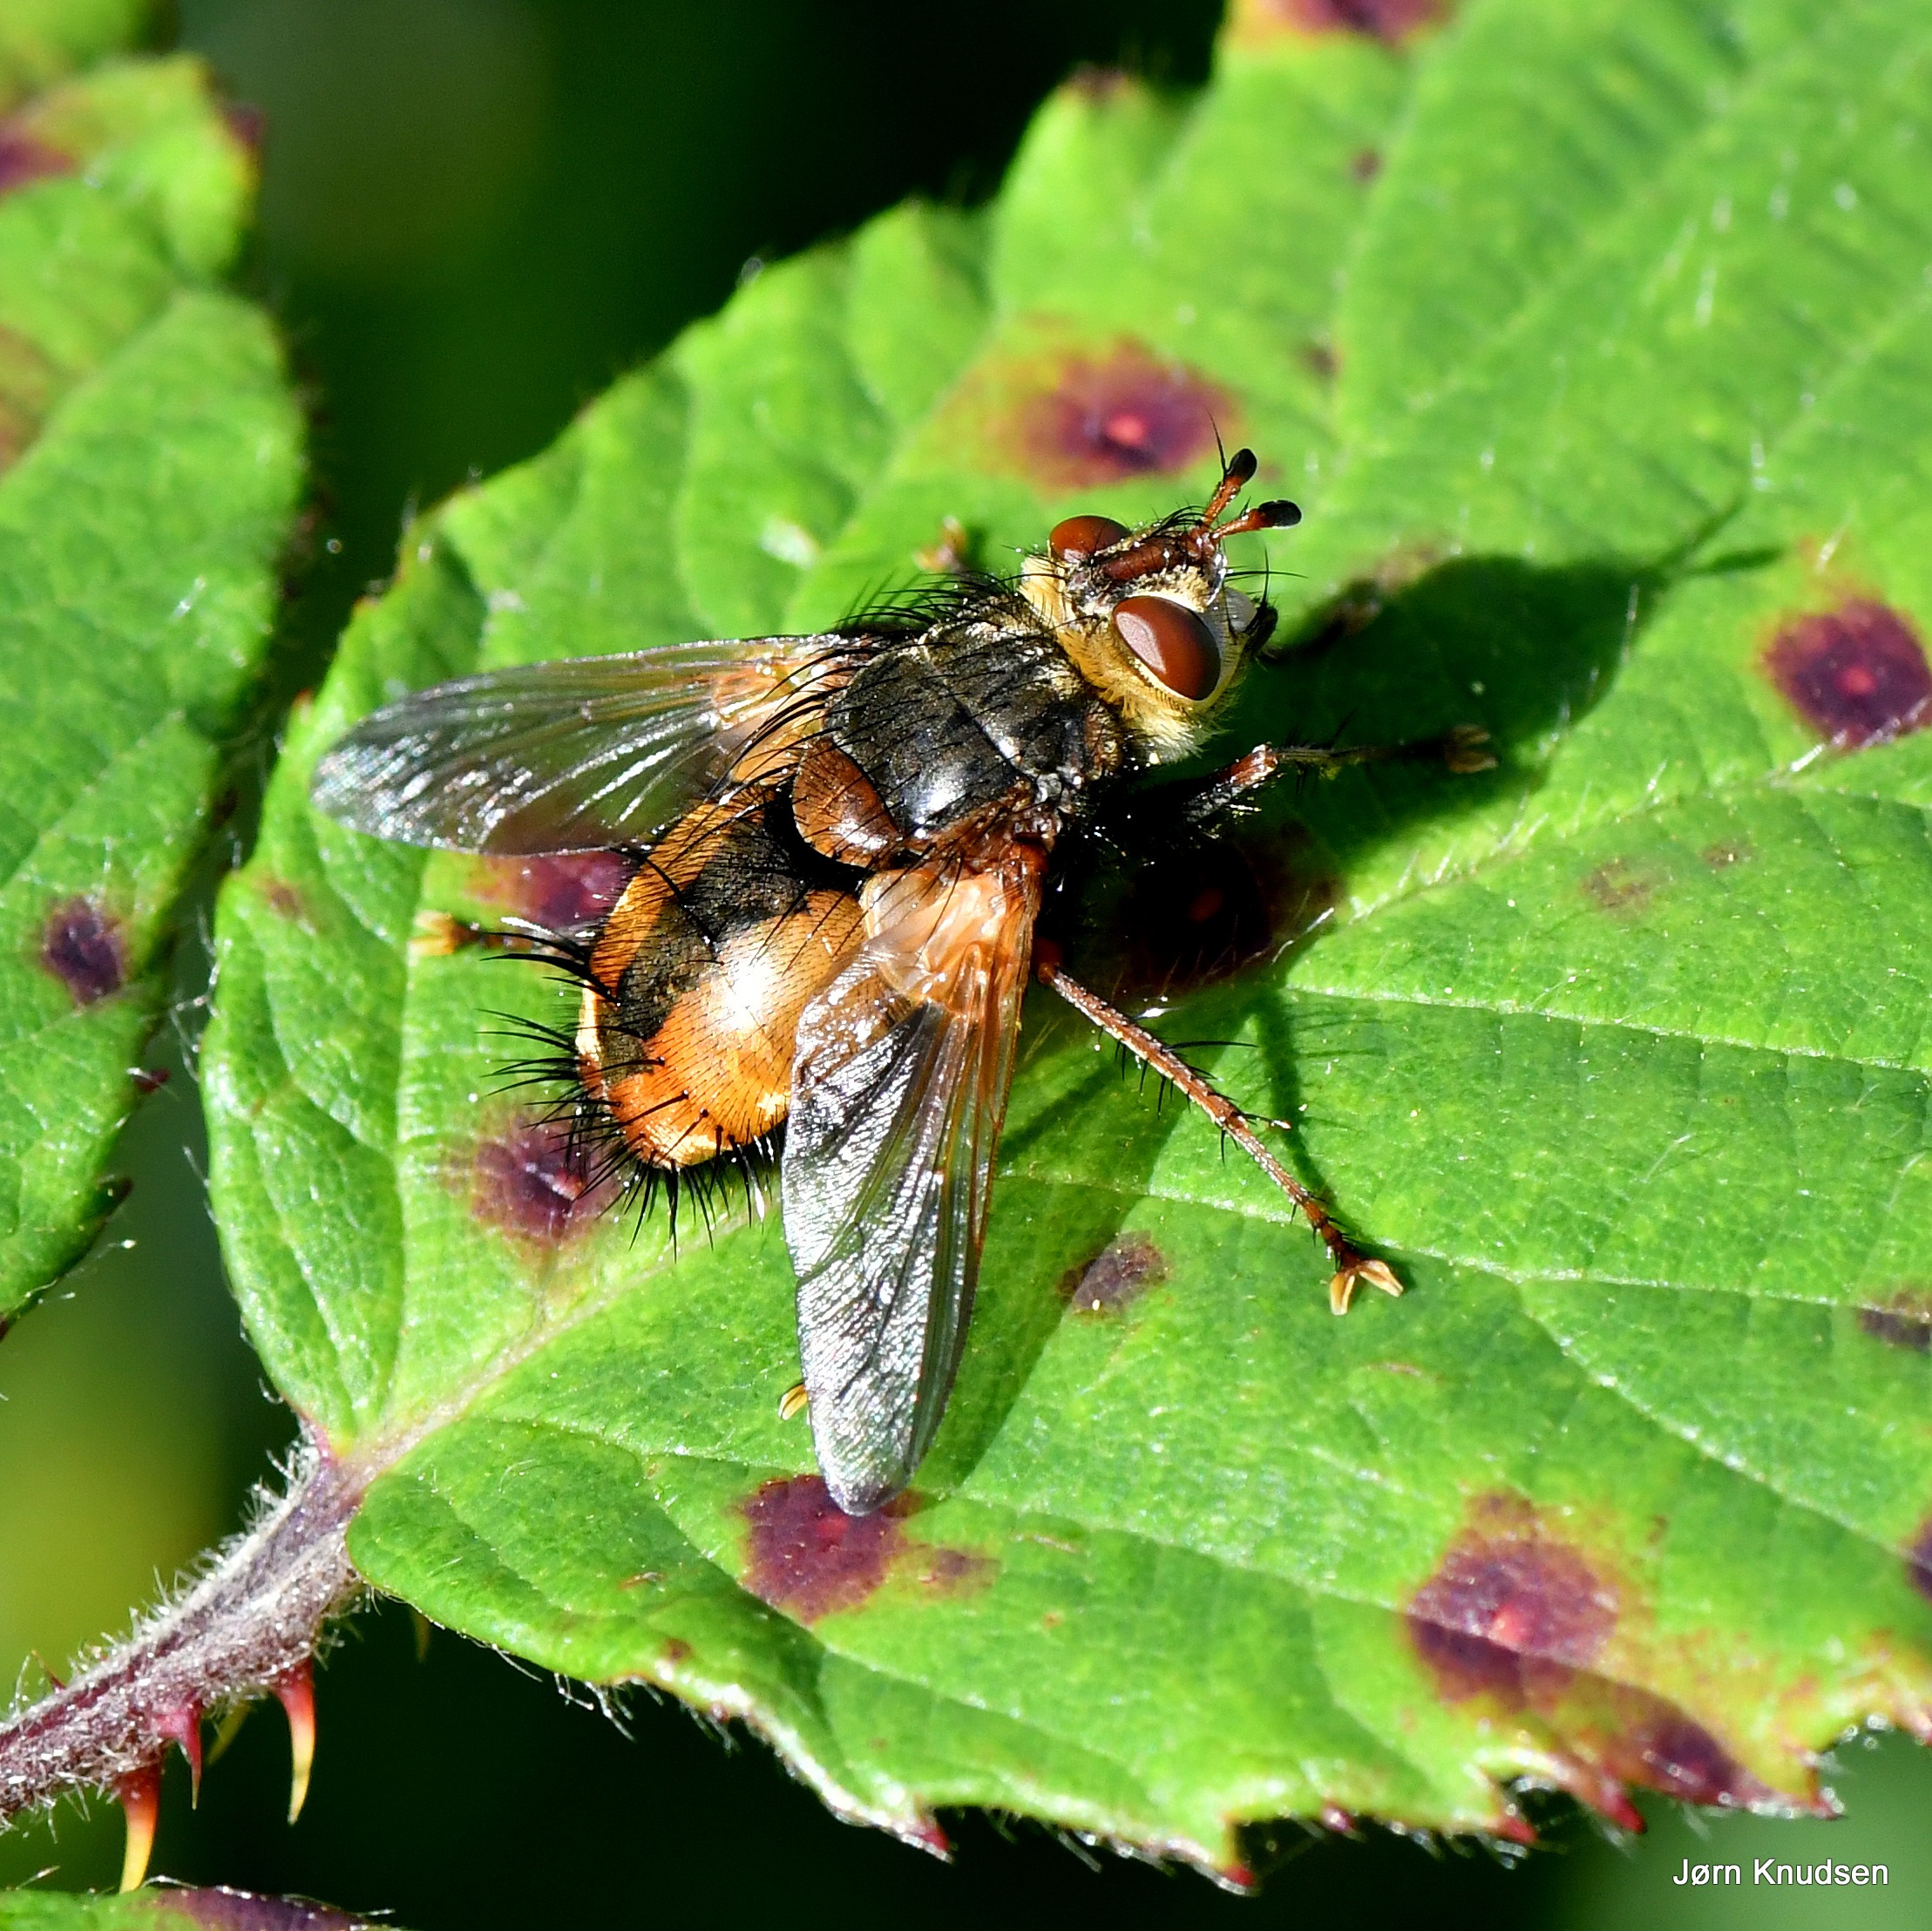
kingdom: Animalia
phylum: Arthropoda
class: Insecta
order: Diptera
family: Tachinidae
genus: Tachina
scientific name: Tachina fera
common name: Mellemfluen oskar
